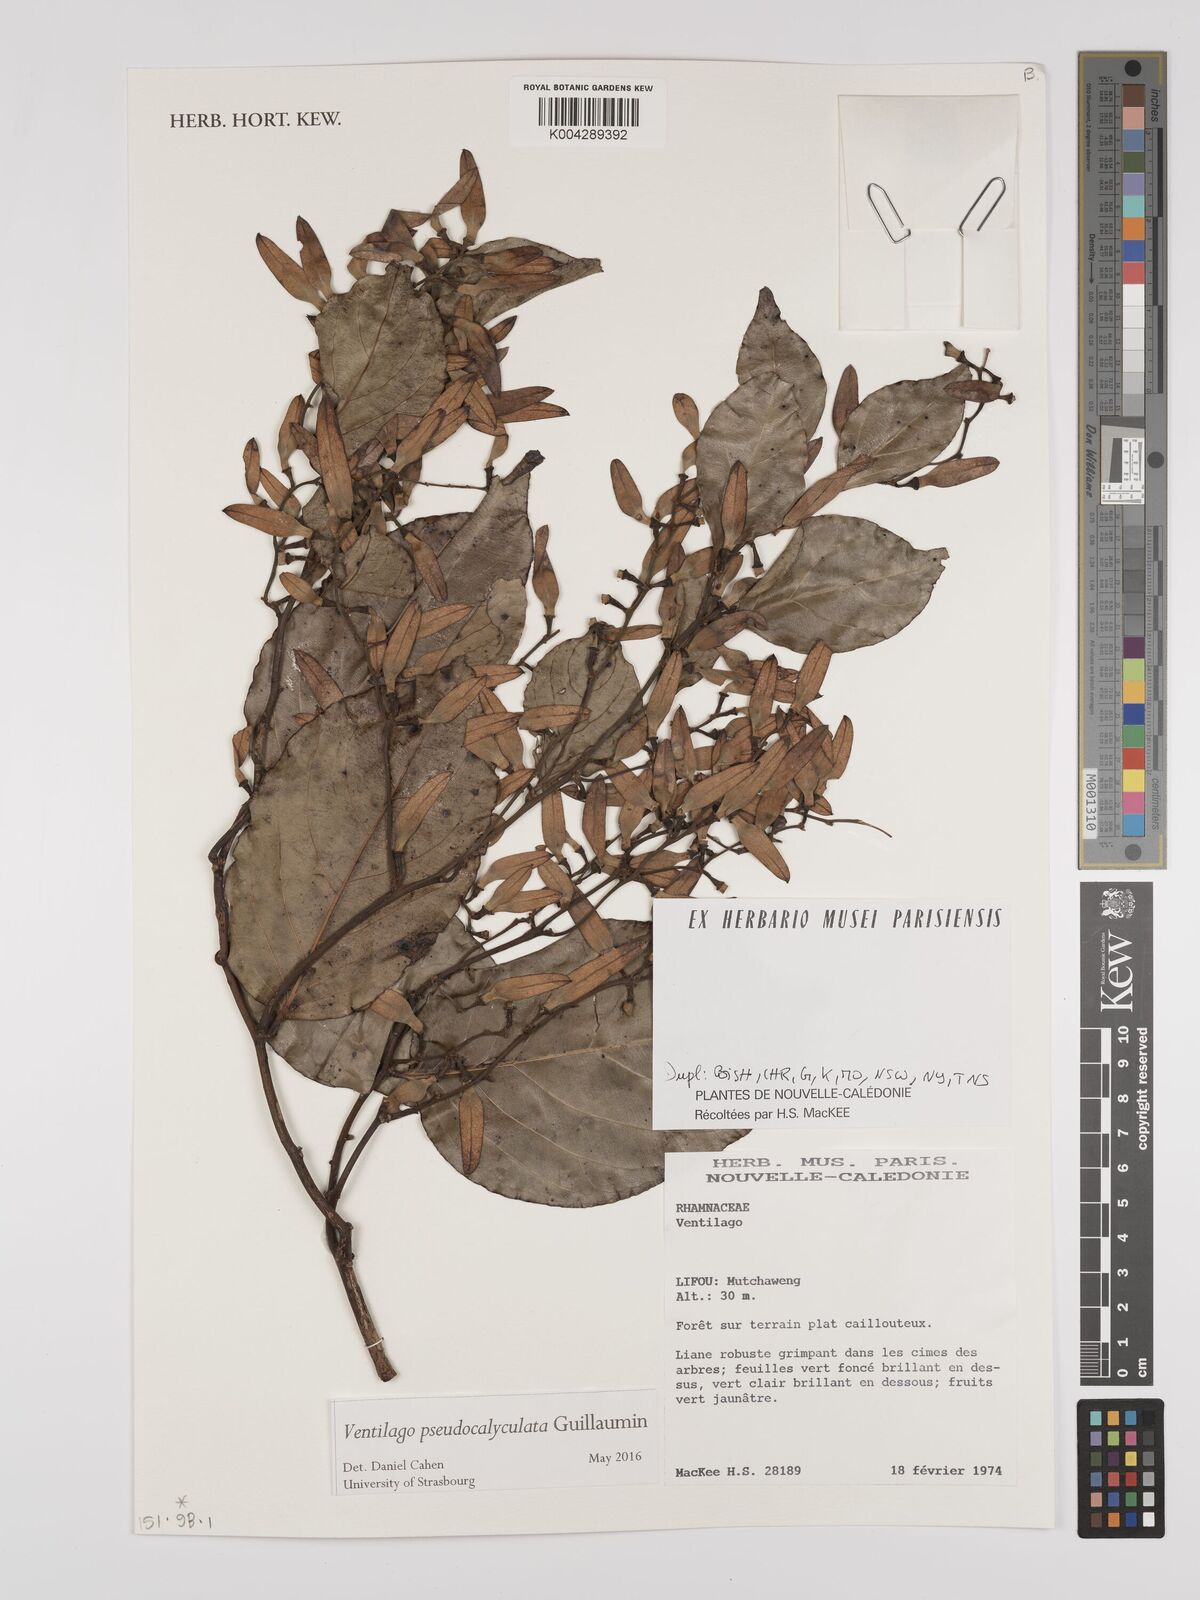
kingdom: Plantae
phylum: Tracheophyta
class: Magnoliopsida
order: Rosales
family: Rhamnaceae
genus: Ventilago
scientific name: Ventilago pseudocalyculata
